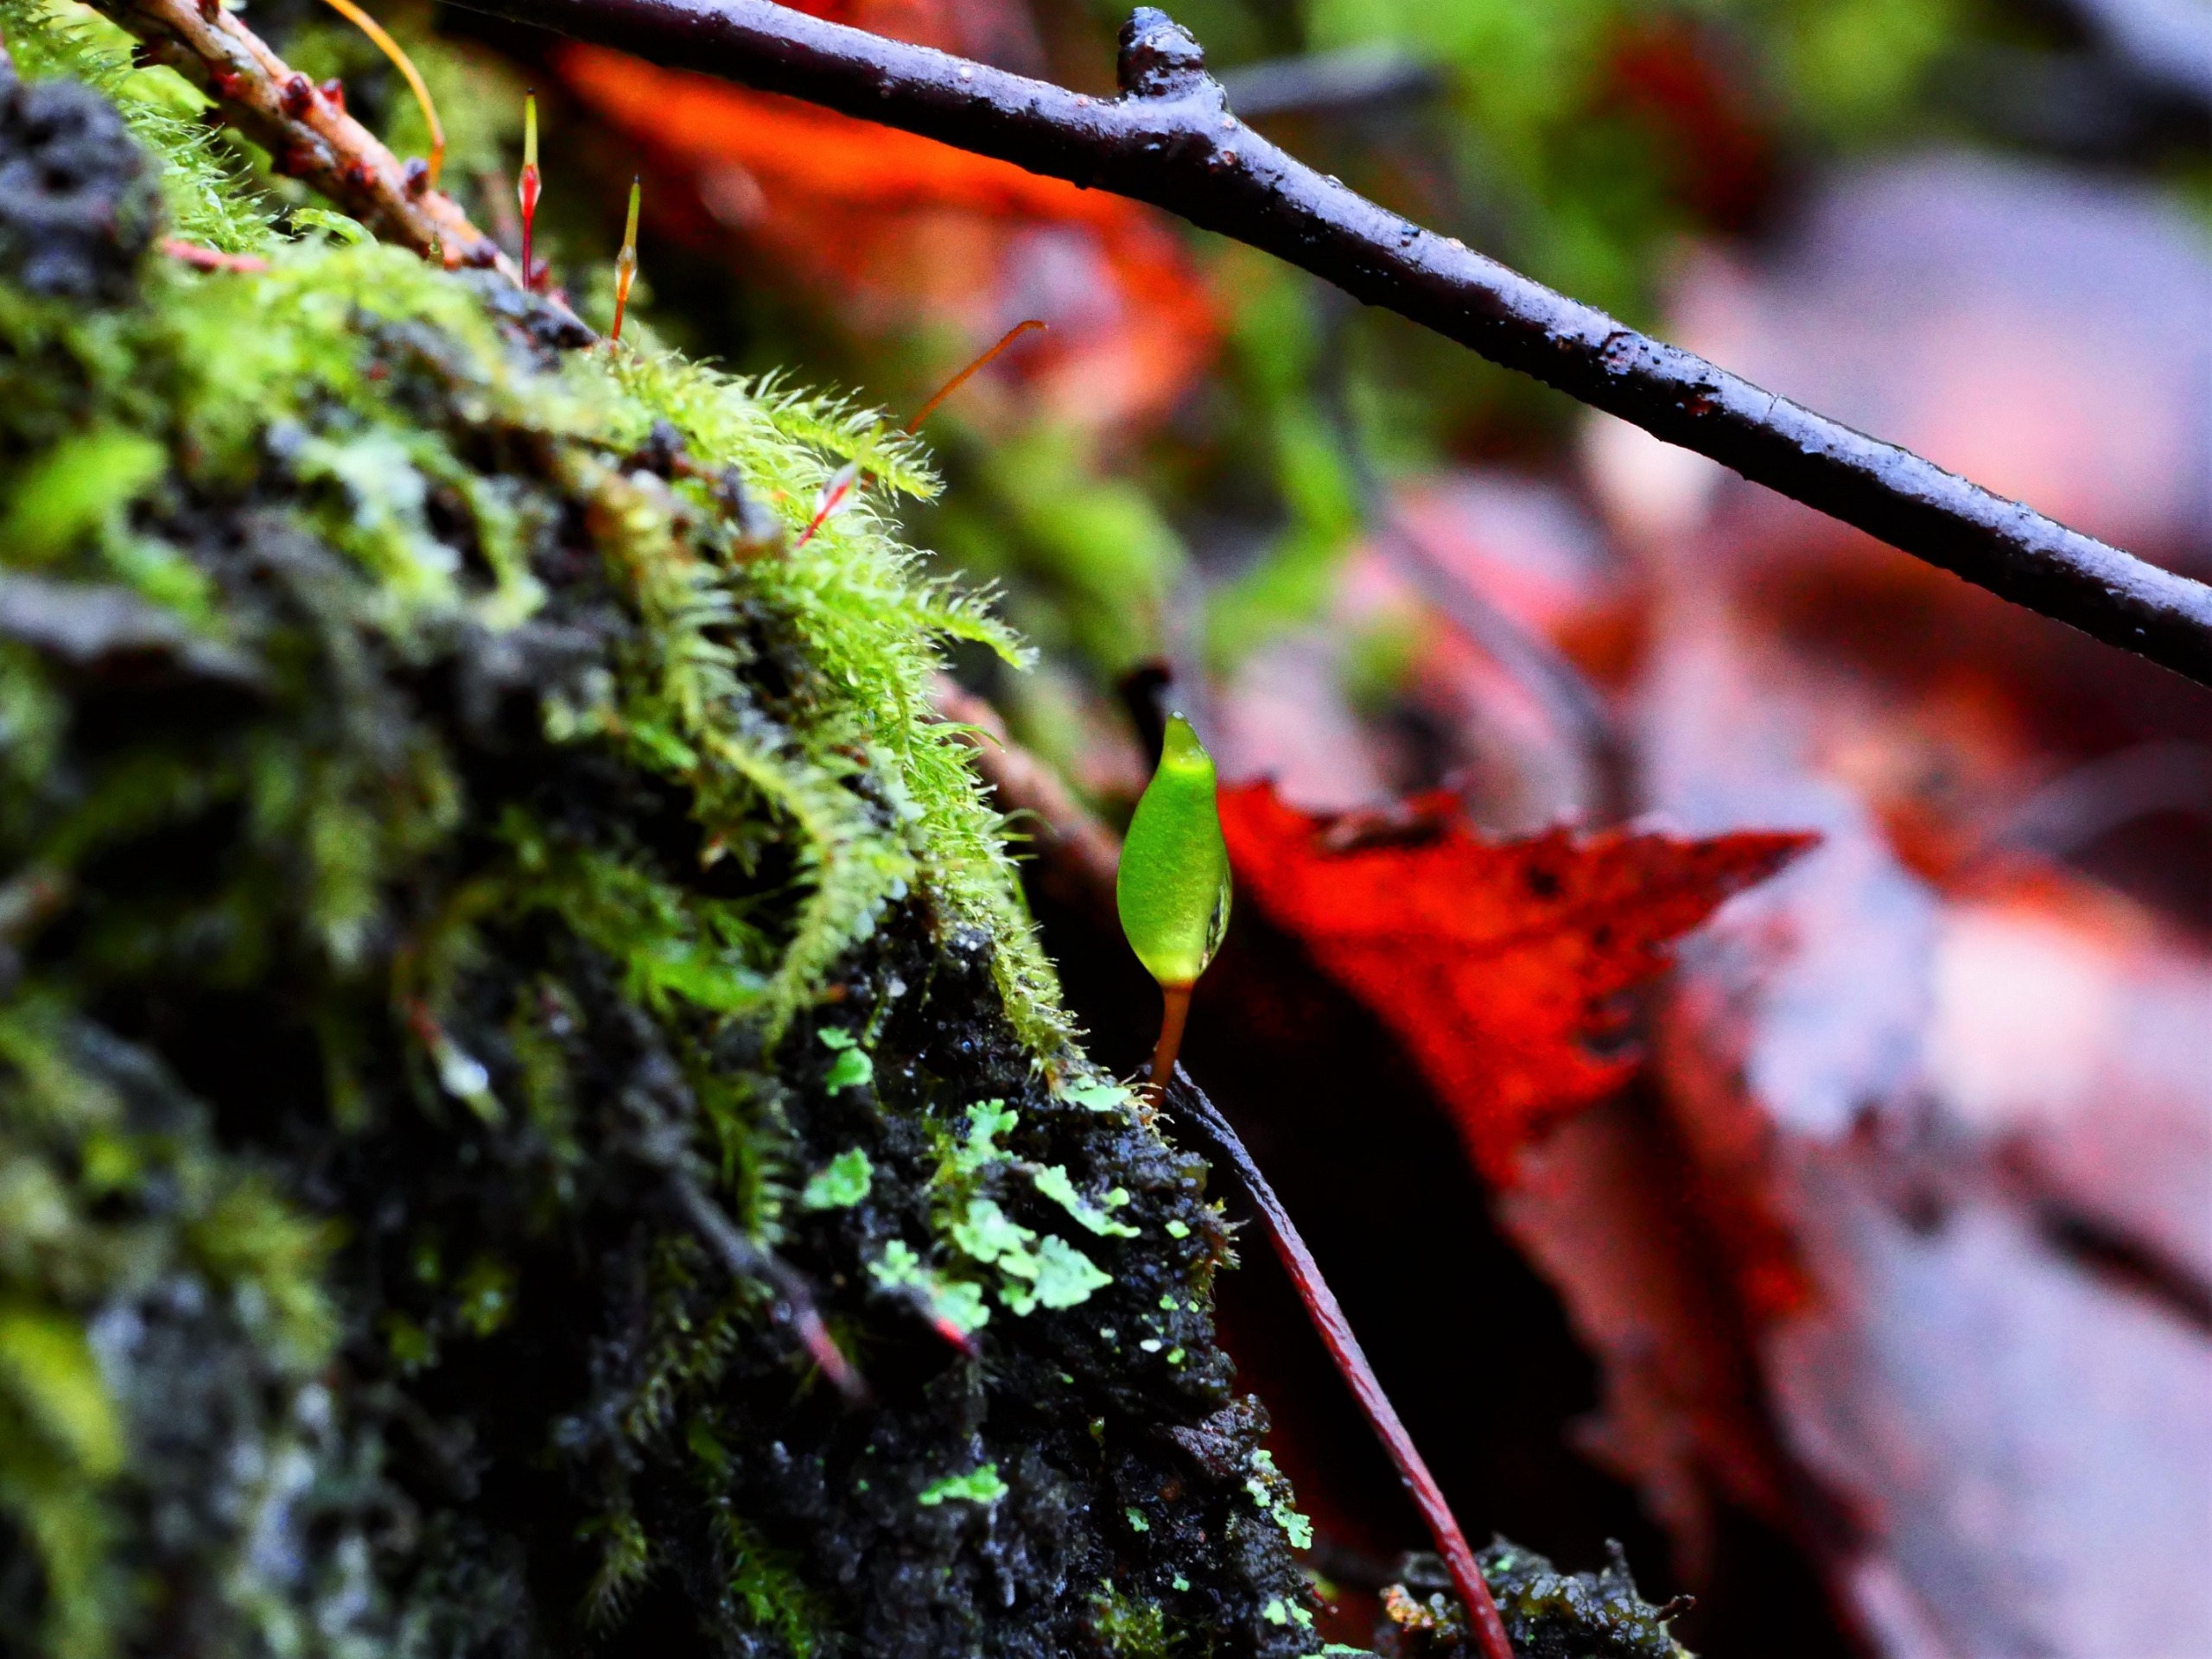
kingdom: Plantae
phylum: Bryophyta
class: Bryopsida
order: Buxbaumiales
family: Buxbaumiaceae
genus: Buxbaumia
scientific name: Buxbaumia viridis
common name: Grøn buxbaumia
